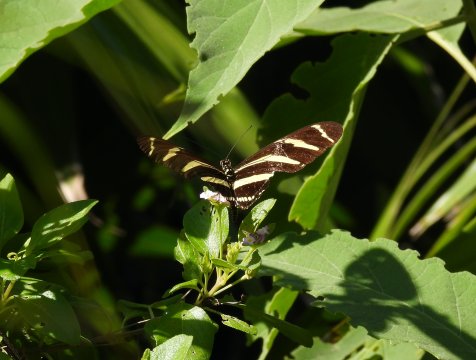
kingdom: Animalia
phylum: Arthropoda
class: Insecta
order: Lepidoptera
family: Nymphalidae
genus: Heliconius
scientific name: Heliconius charithonia
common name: Zebra Longwing
